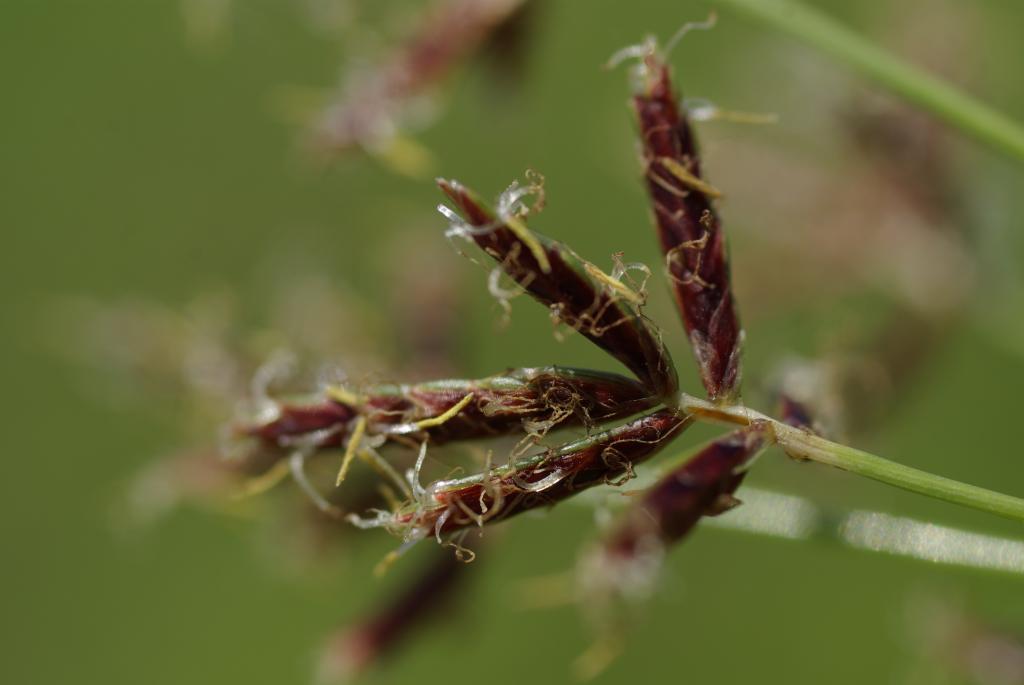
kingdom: Plantae
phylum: Tracheophyta
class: Liliopsida
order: Poales
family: Cyperaceae
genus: Cyperus
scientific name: Cyperus rotundus
